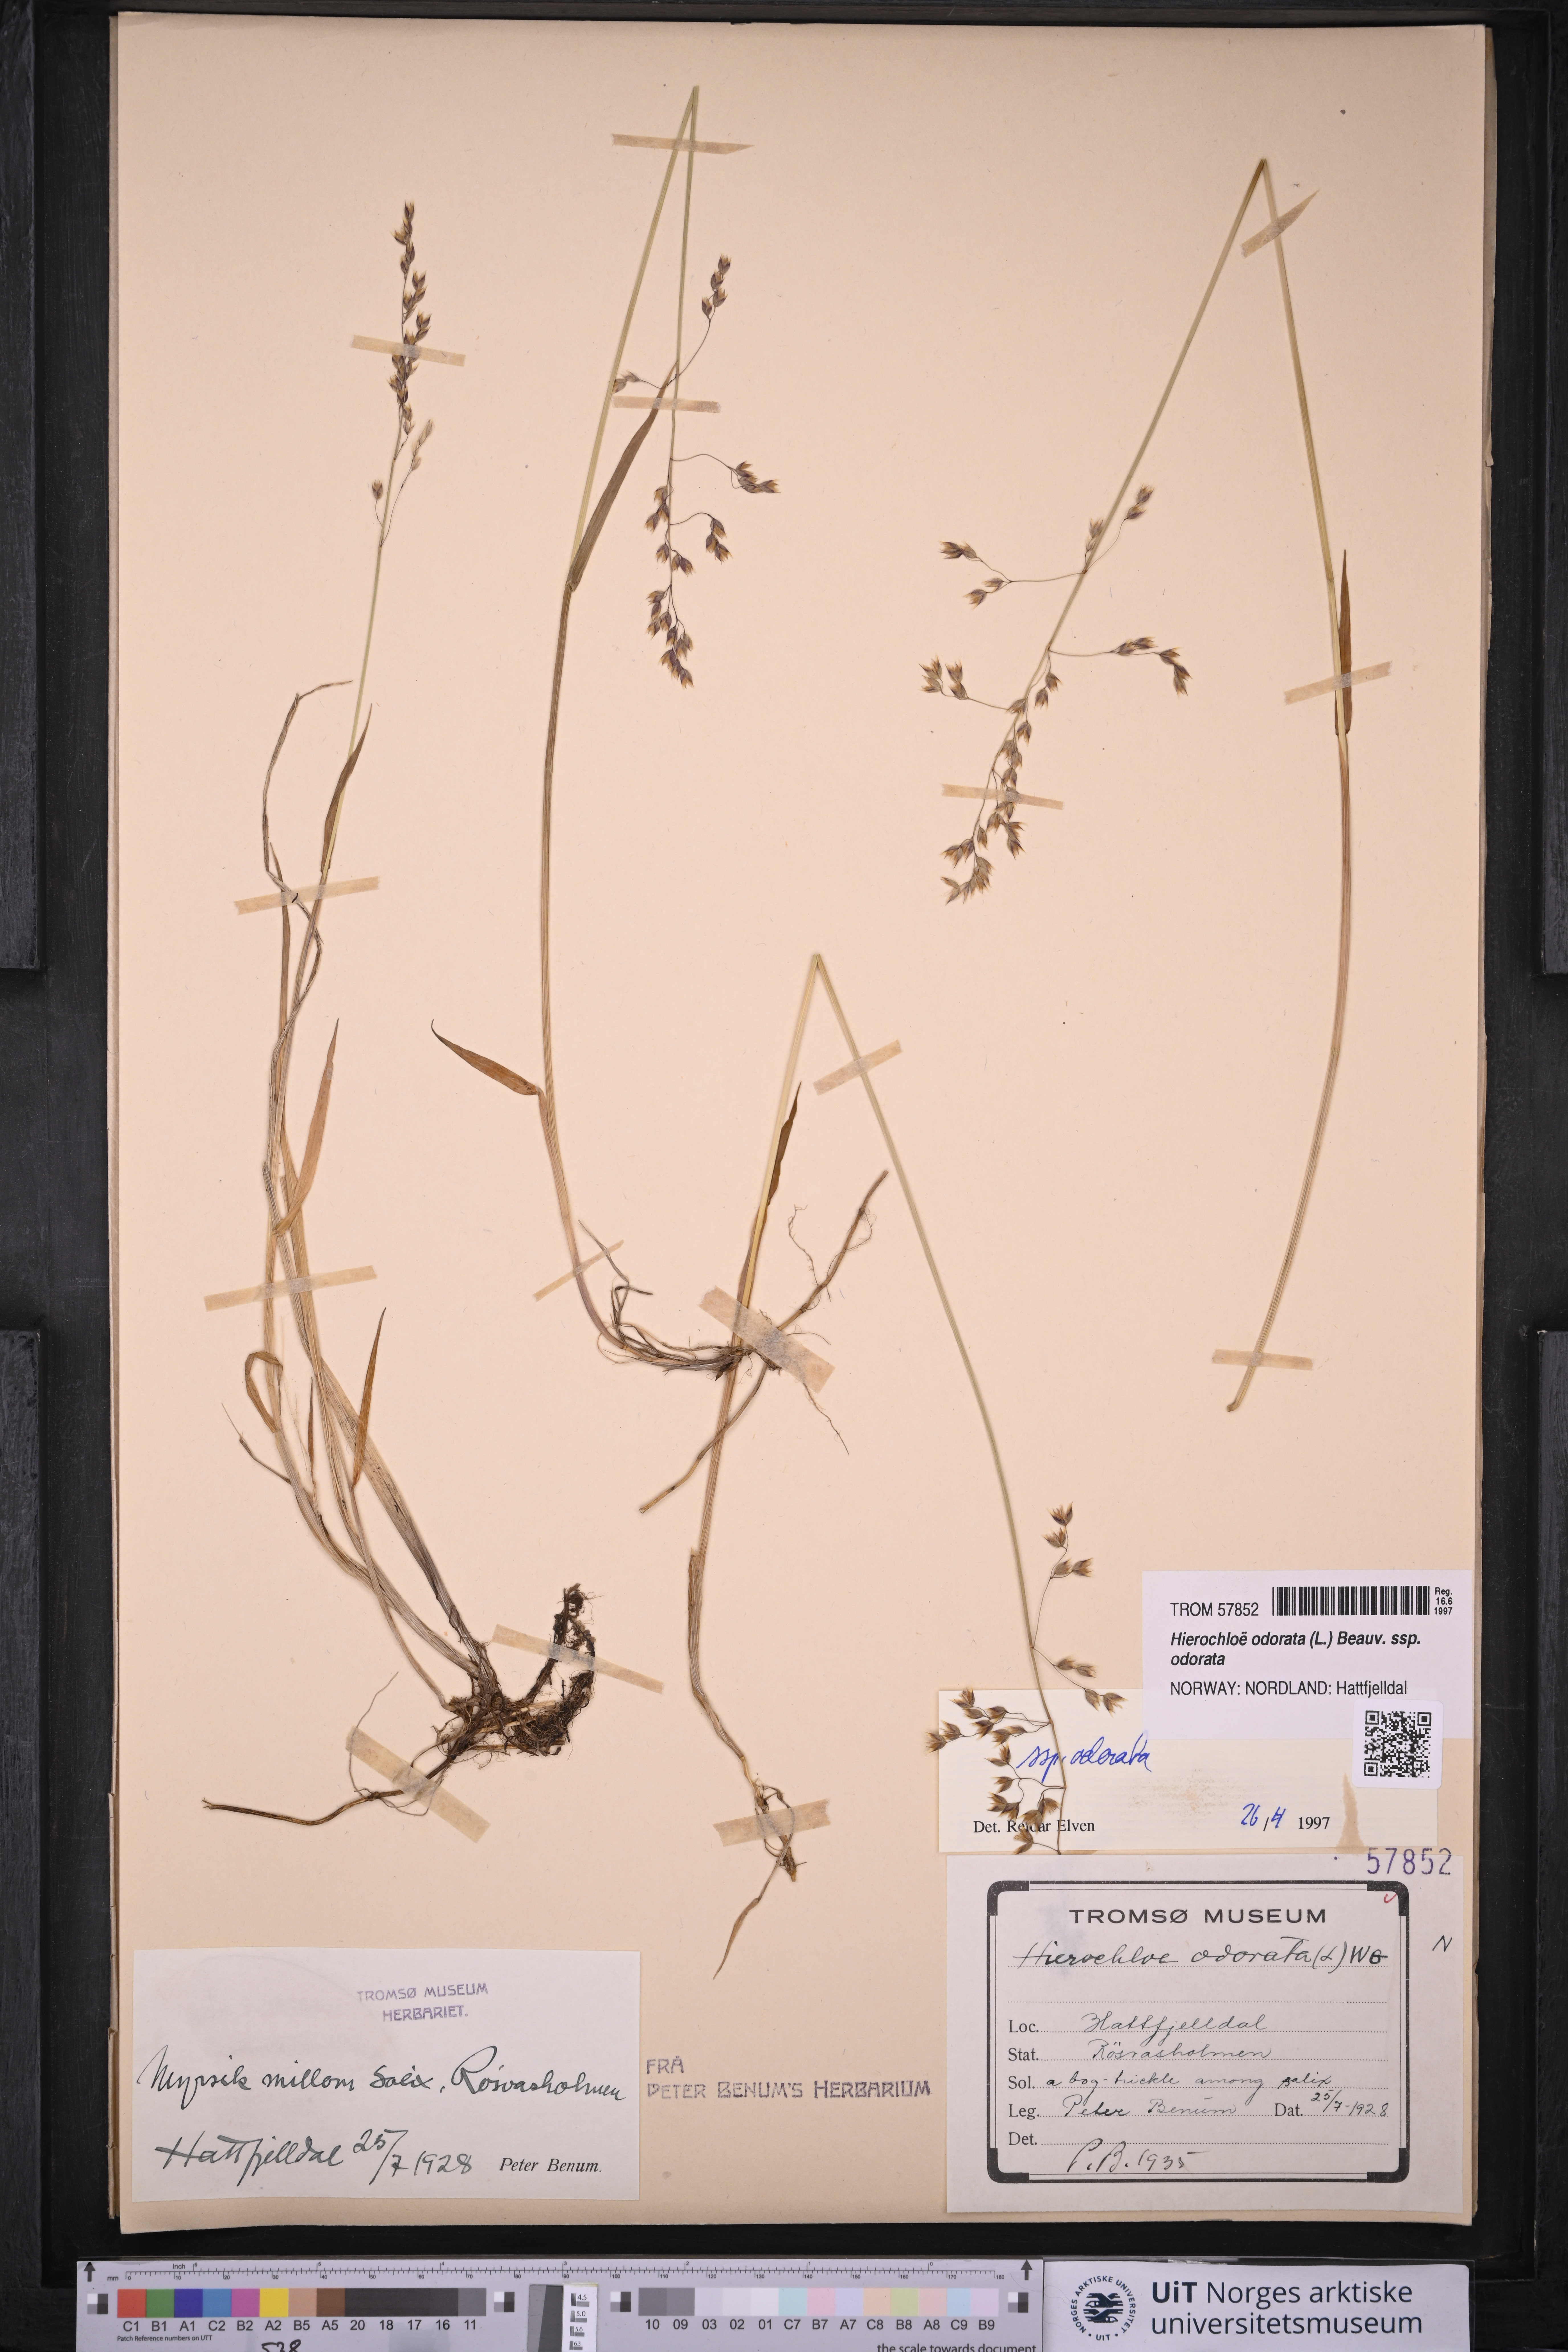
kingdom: Plantae
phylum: Tracheophyta
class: Liliopsida
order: Poales
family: Poaceae
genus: Anthoxanthum
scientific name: Anthoxanthum nitens
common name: Holy grass
